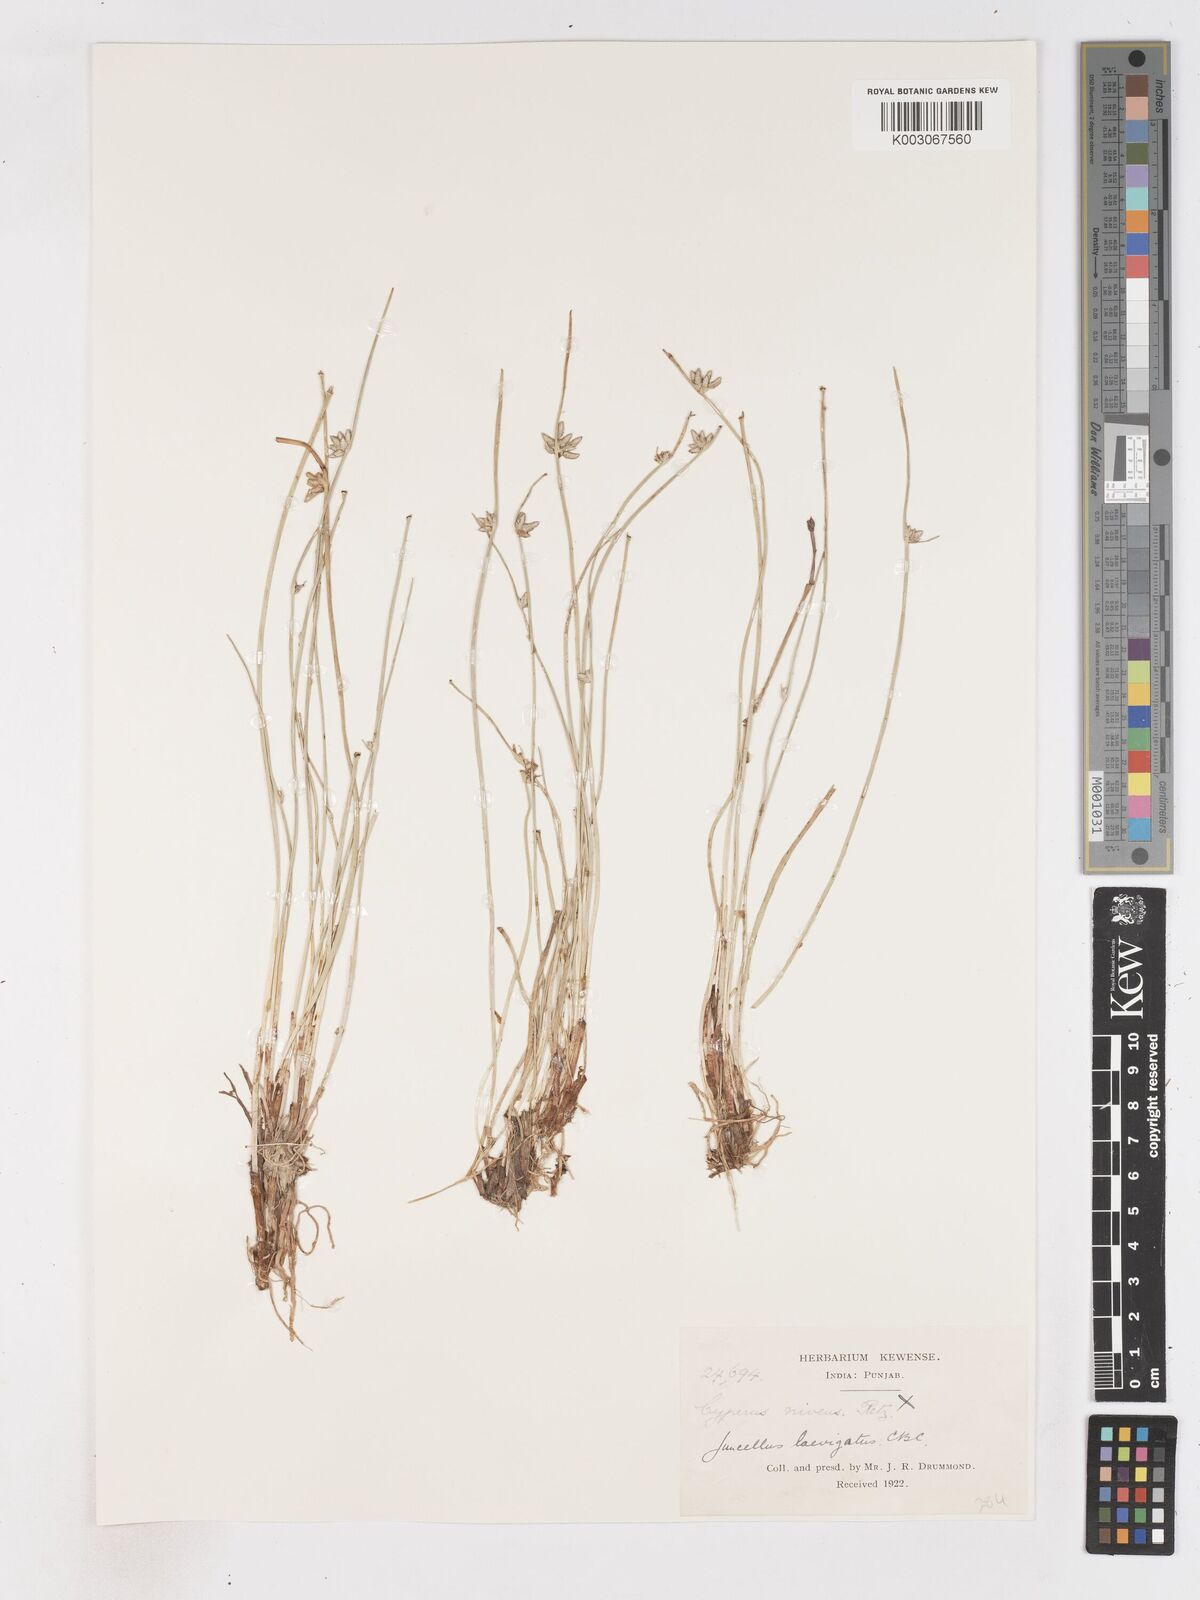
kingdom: Plantae
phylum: Tracheophyta
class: Liliopsida
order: Poales
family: Cyperaceae
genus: Cyperus
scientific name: Cyperus laevigatus
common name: Smooth flat sedge
